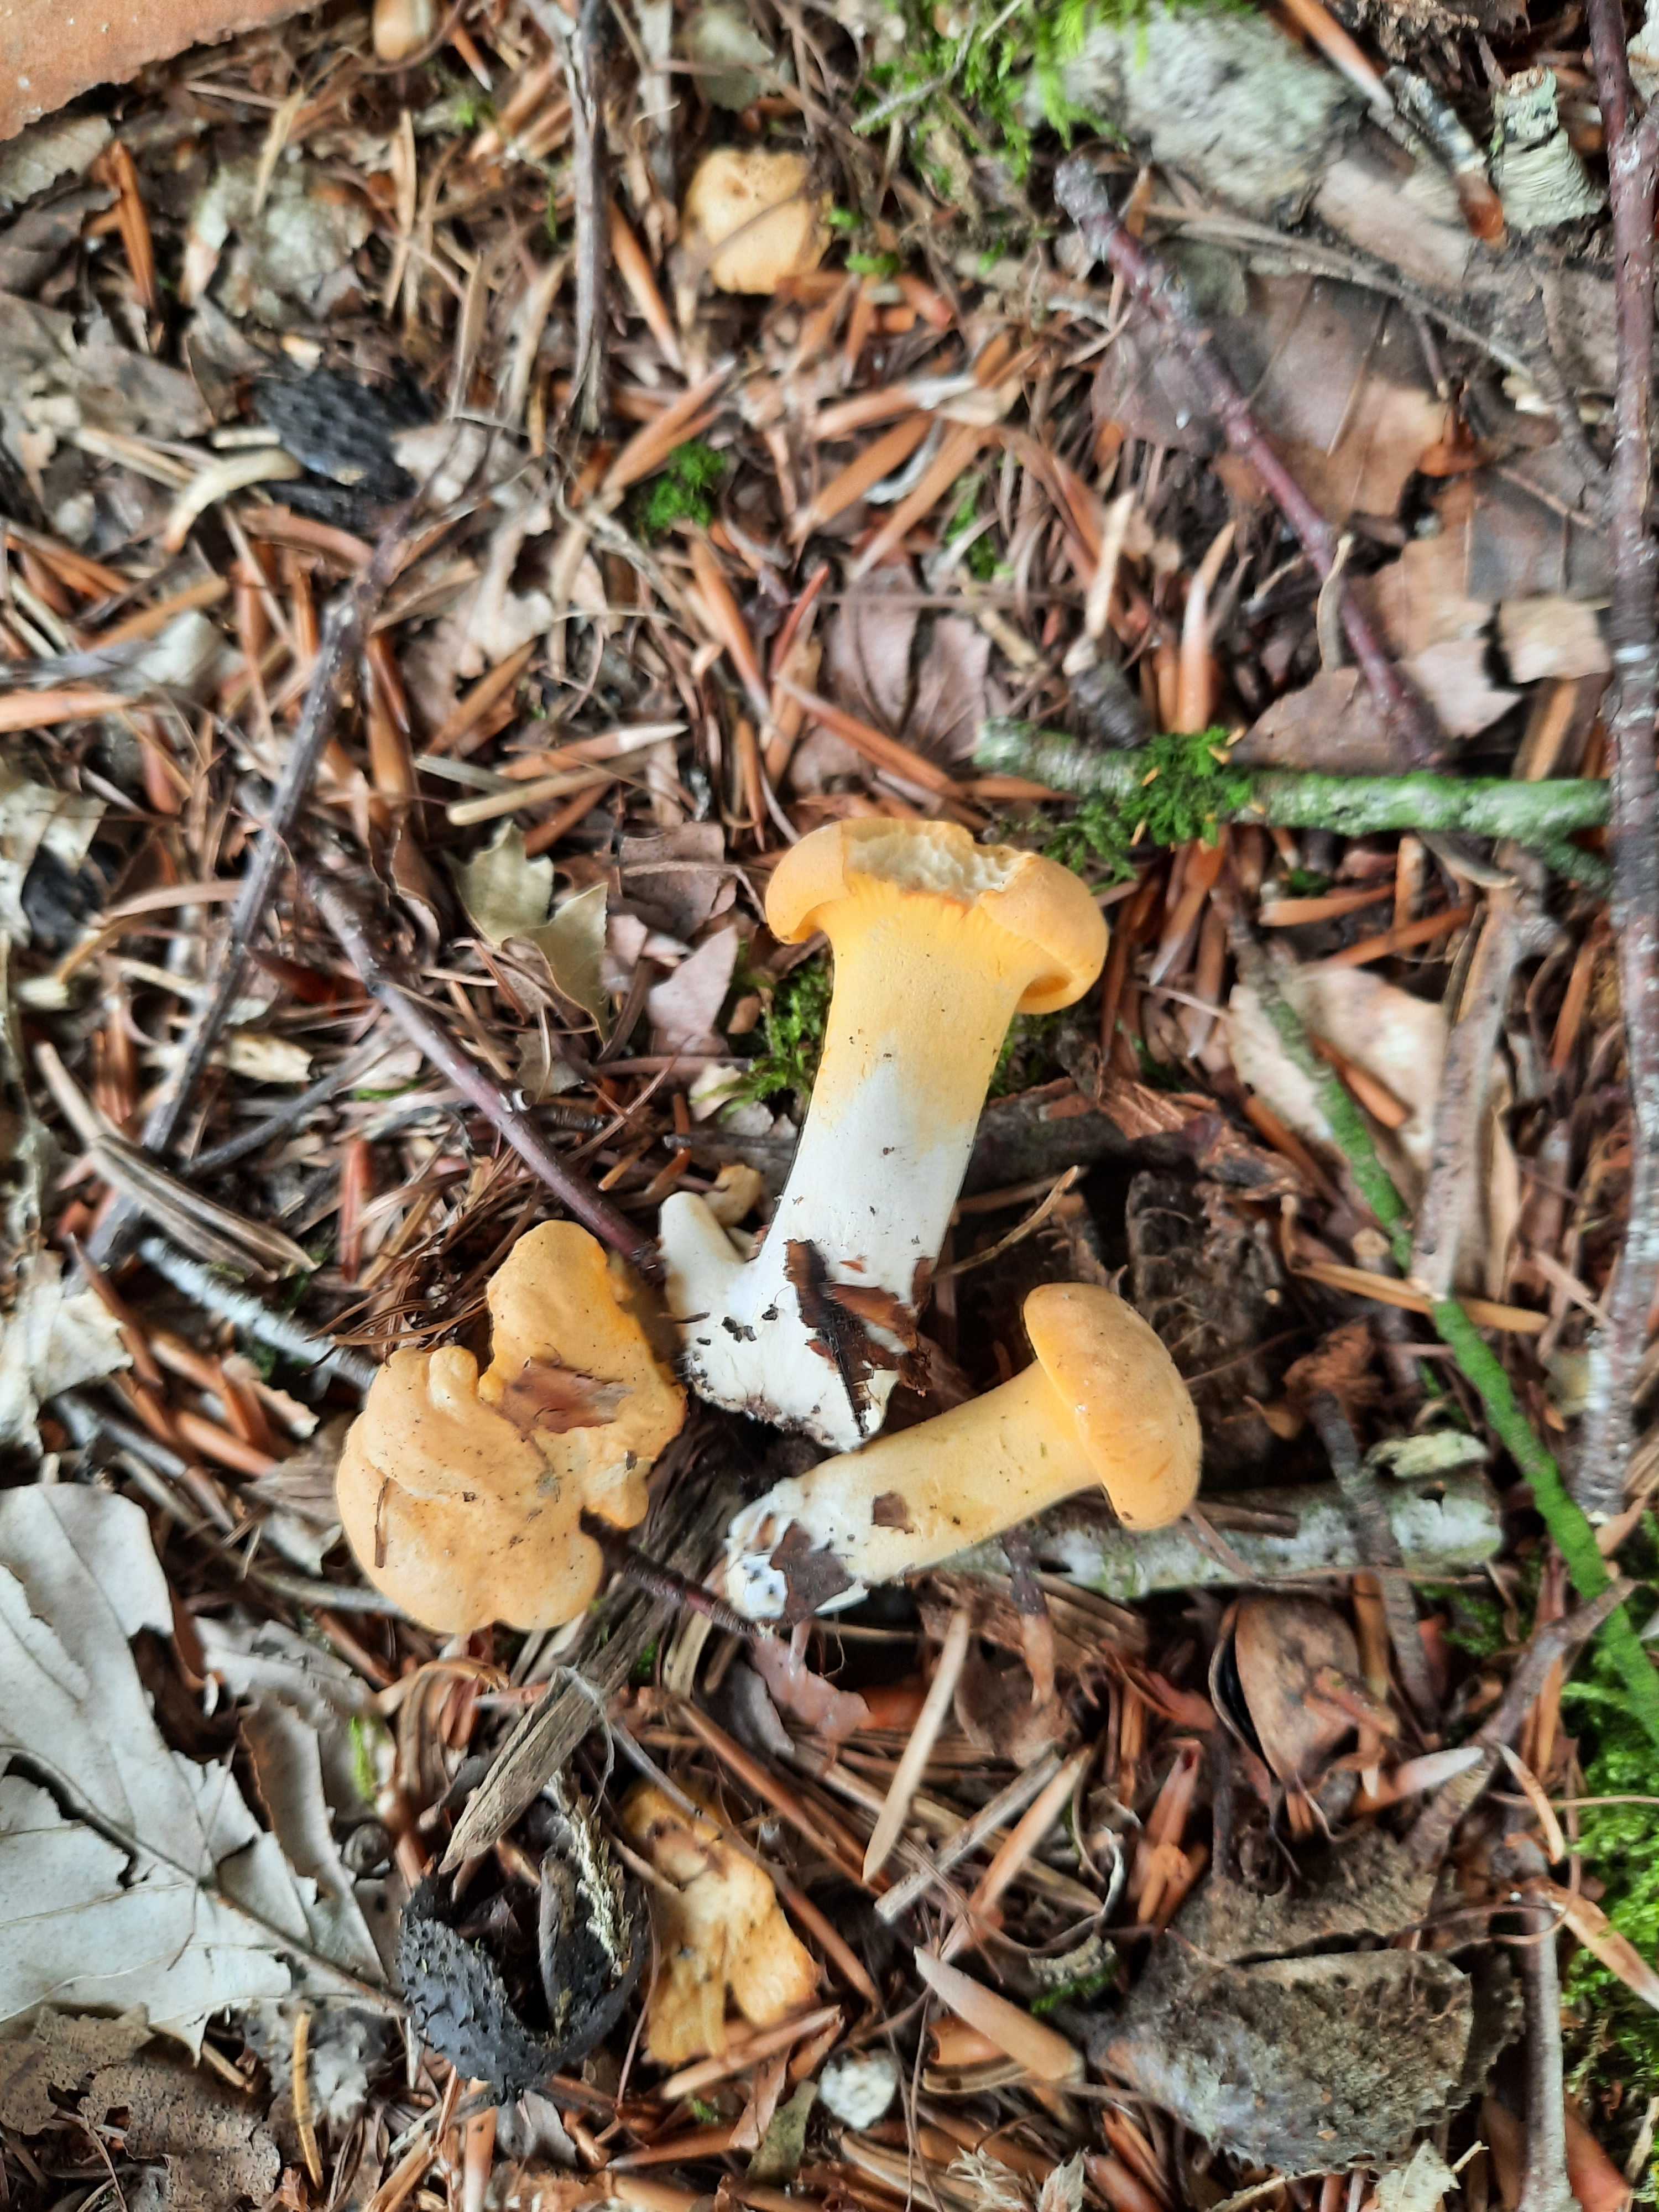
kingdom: Fungi
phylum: Basidiomycota
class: Agaricomycetes
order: Cantharellales
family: Hydnaceae
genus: Cantharellus
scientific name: Cantharellus cibarius
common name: almindelig kantarel
